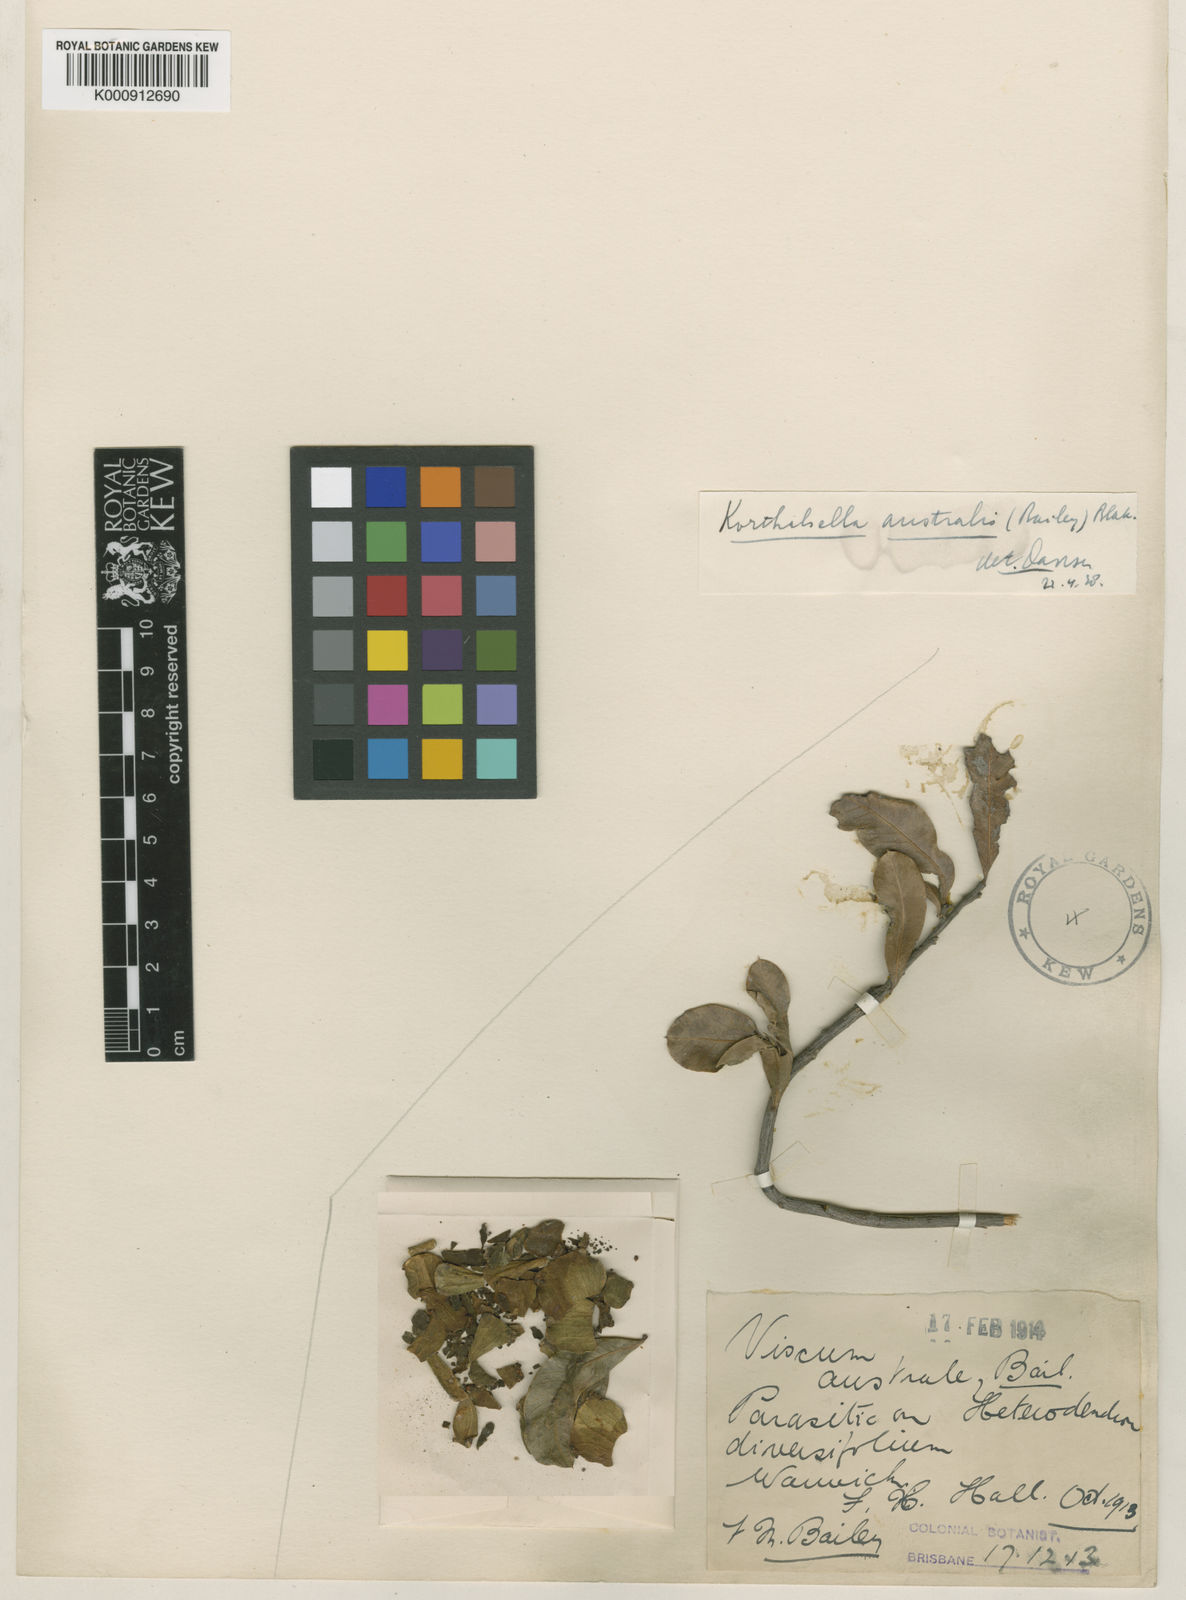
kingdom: Plantae
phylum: Tracheophyta
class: Magnoliopsida
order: Santalales
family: Viscaceae
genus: Korthalsella
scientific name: Korthalsella breviarticulata
